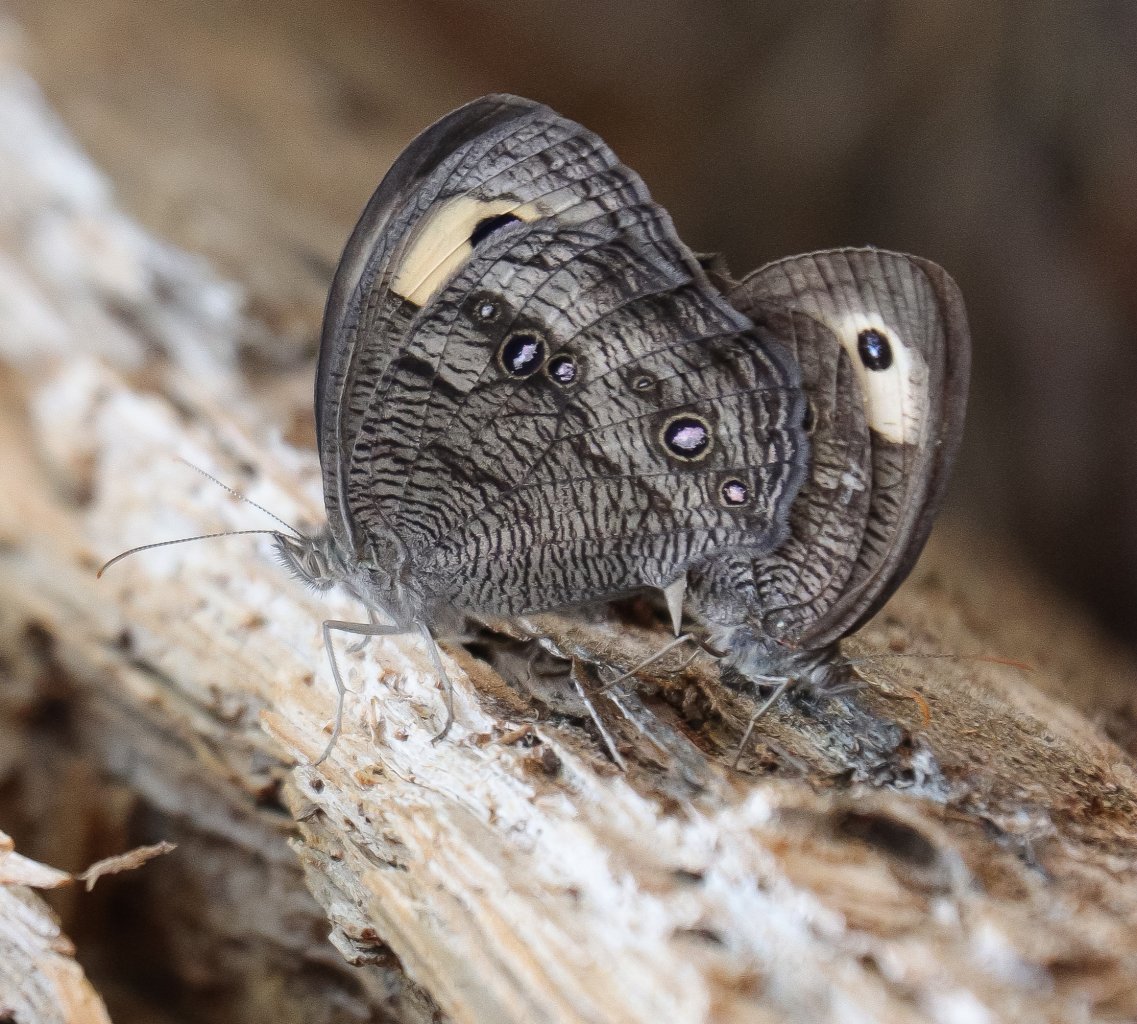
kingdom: Animalia
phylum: Arthropoda
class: Insecta
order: Lepidoptera
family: Nymphalidae
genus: Cercyonis
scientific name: Cercyonis pegala
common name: Common Wood-Nymph
